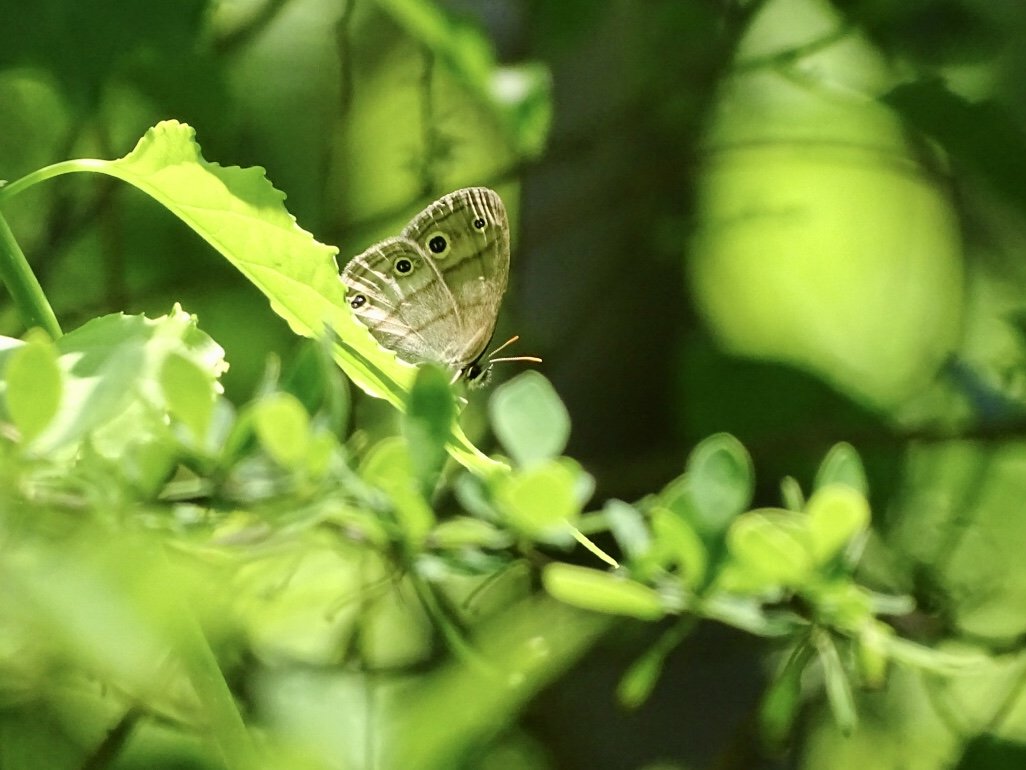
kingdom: Animalia
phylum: Arthropoda
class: Insecta
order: Lepidoptera
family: Nymphalidae
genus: Euptychia
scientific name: Euptychia cymela
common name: Little Wood Satyr
